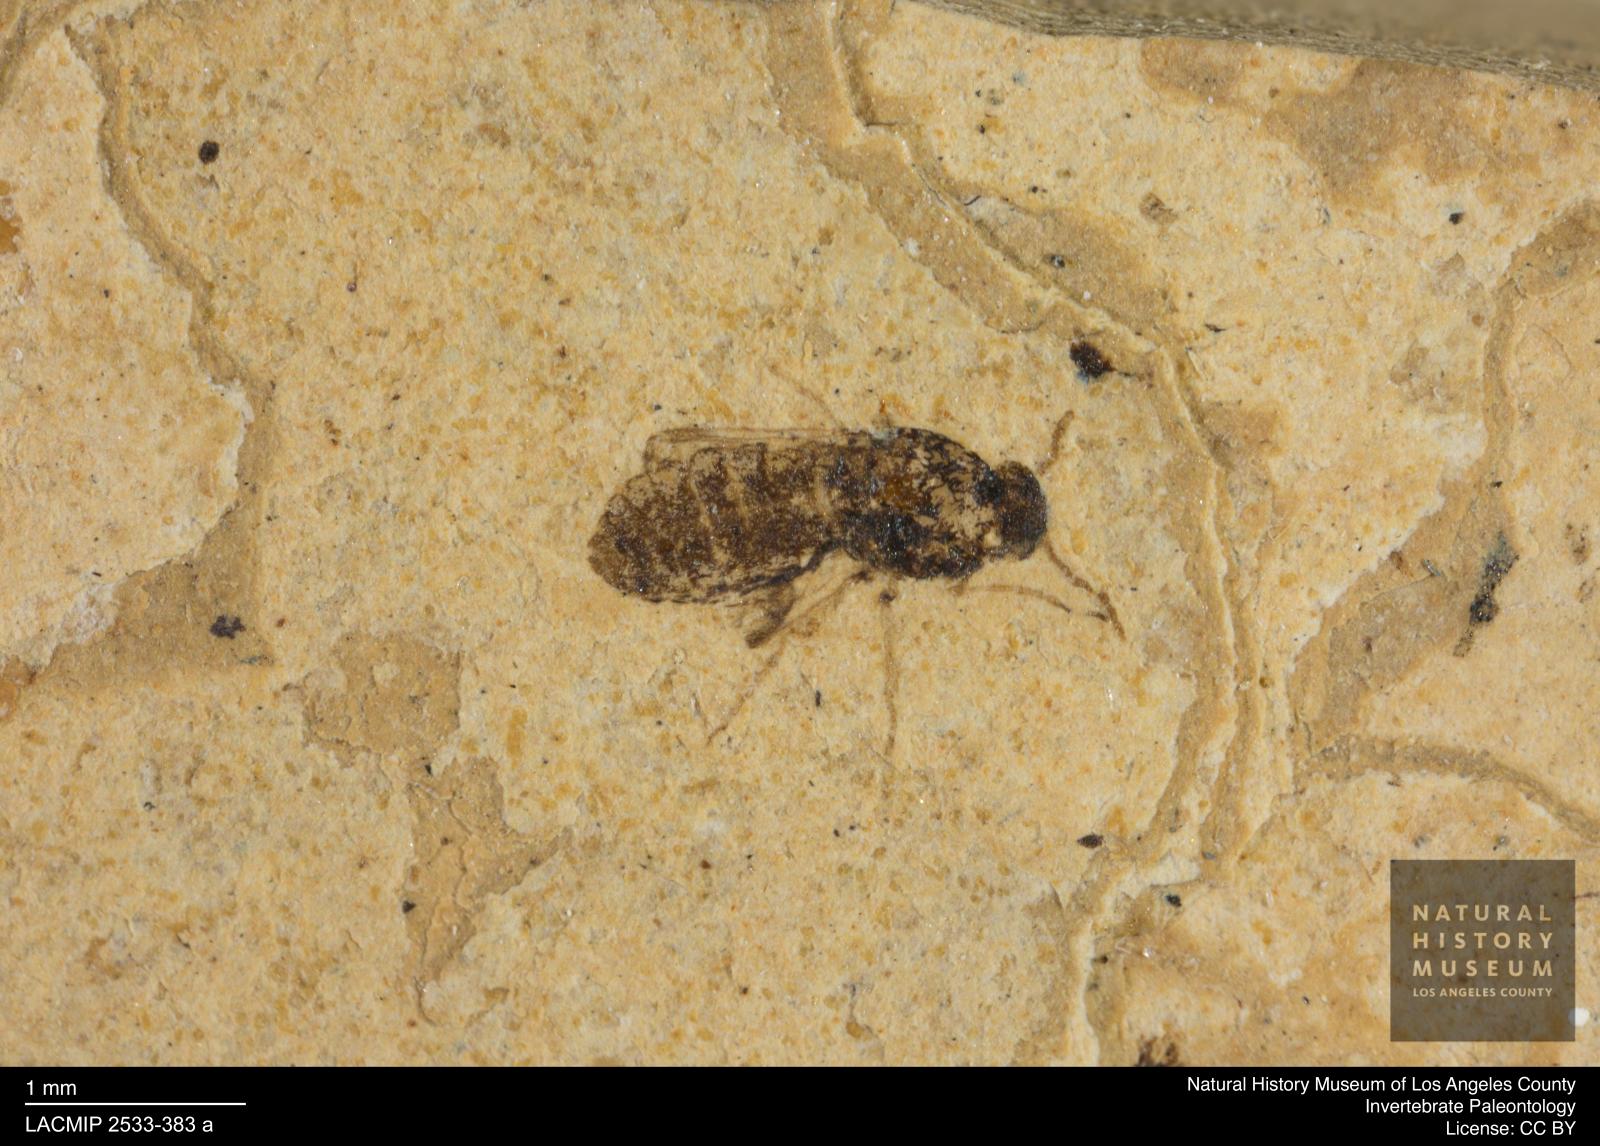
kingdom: Animalia
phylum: Arthropoda
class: Insecta
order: Diptera
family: Ceratopogonidae
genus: Culicoides
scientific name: Culicoides obscuratus
